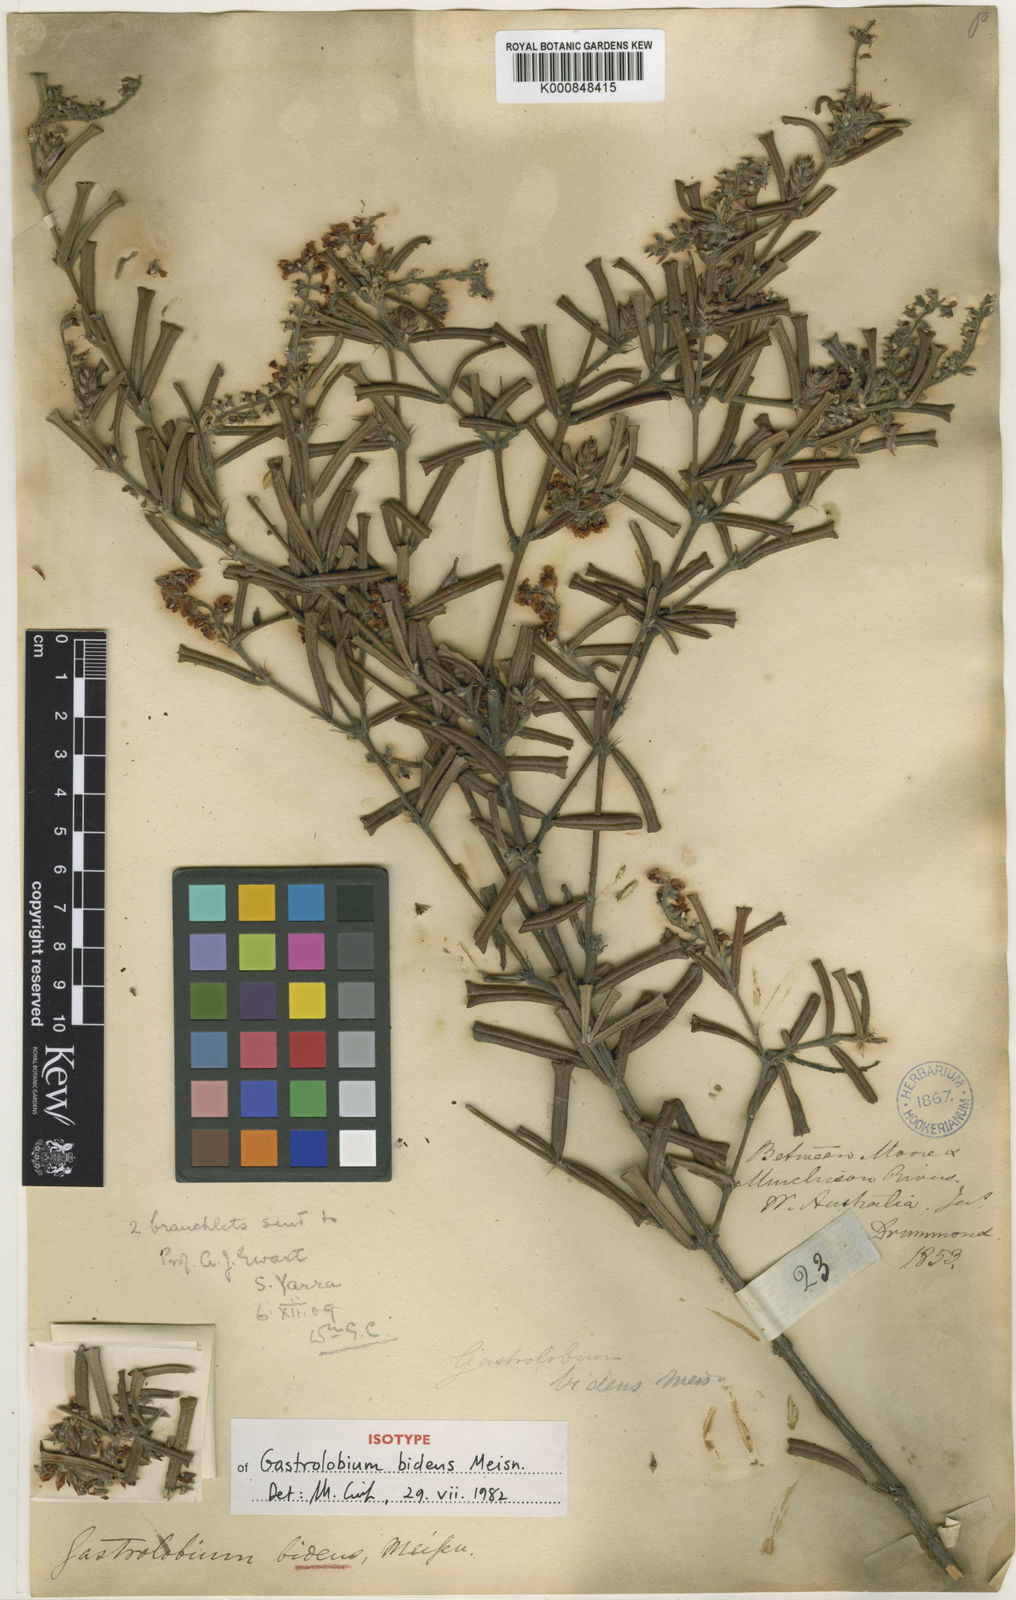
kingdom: Plantae
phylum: Tracheophyta
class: Magnoliopsida
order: Fabales
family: Fabaceae
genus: Gastrolobium
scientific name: Gastrolobium bilobum
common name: Heart-leaf poisonbush
